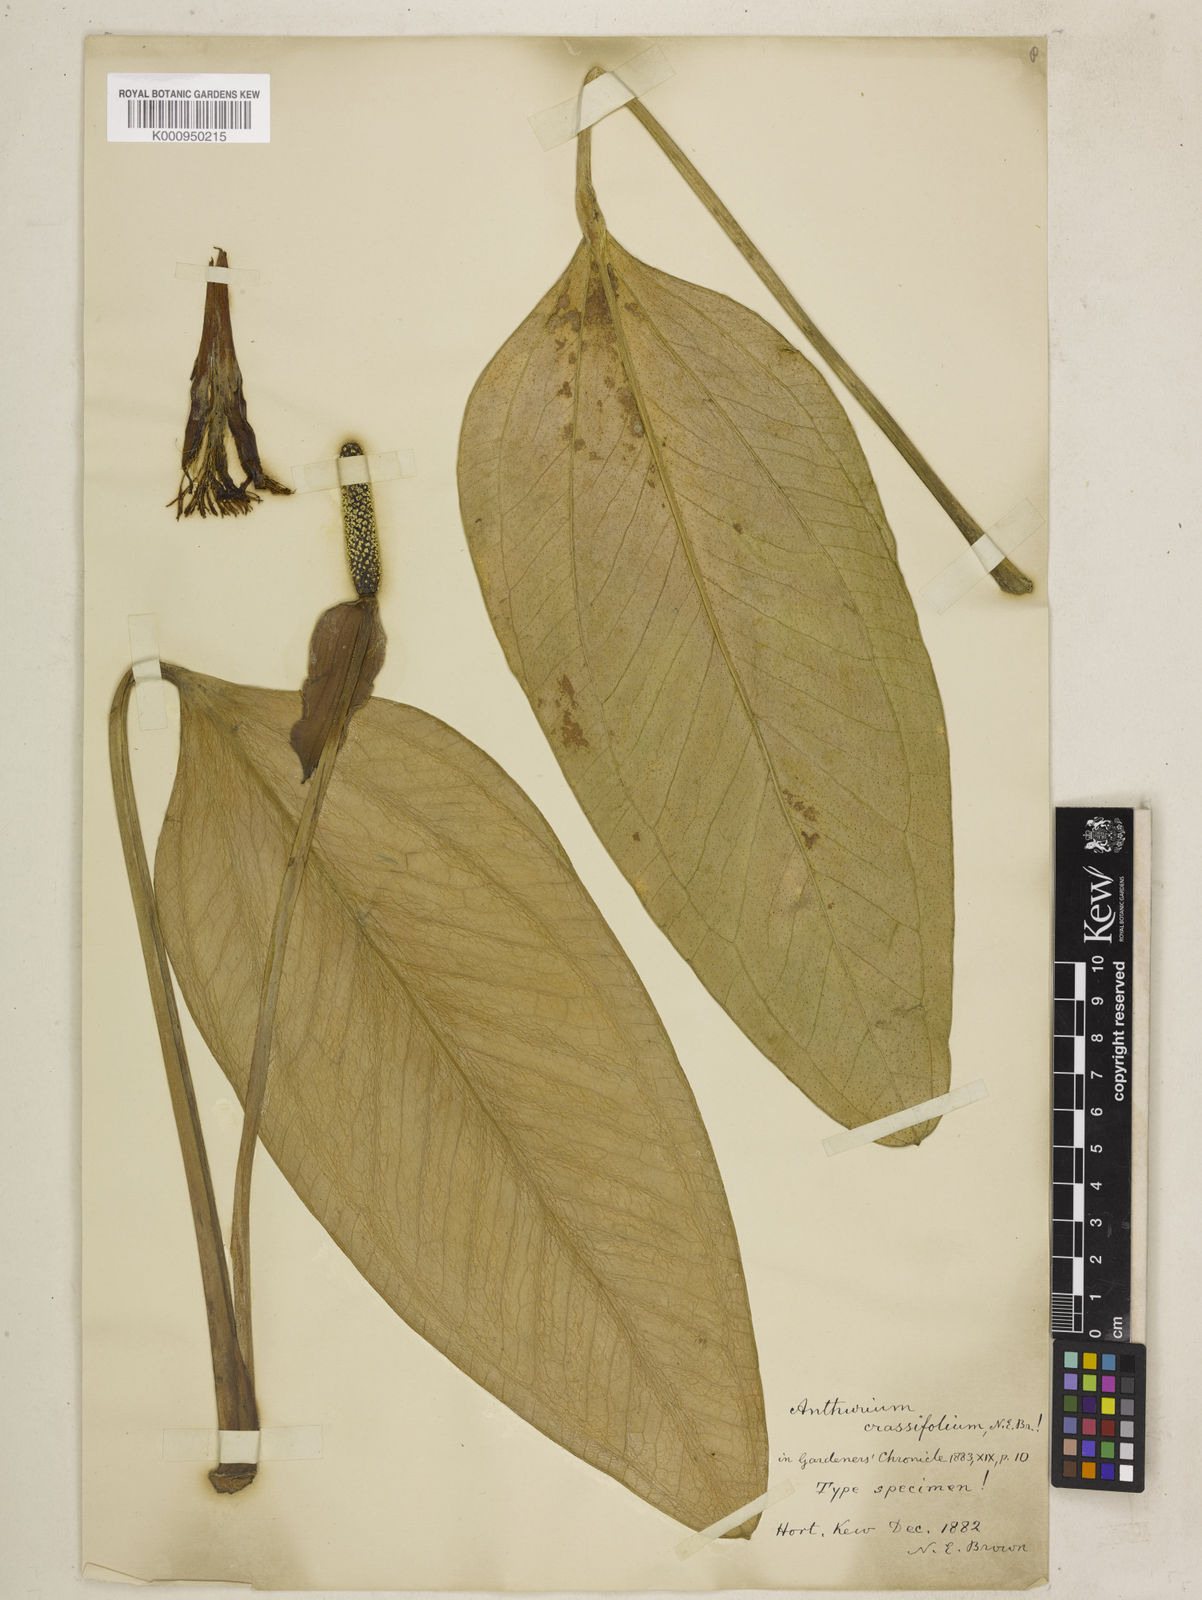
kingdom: Plantae
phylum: Tracheophyta
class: Liliopsida
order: Alismatales
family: Araceae
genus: Anthurium
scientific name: Anthurium crassifolium
